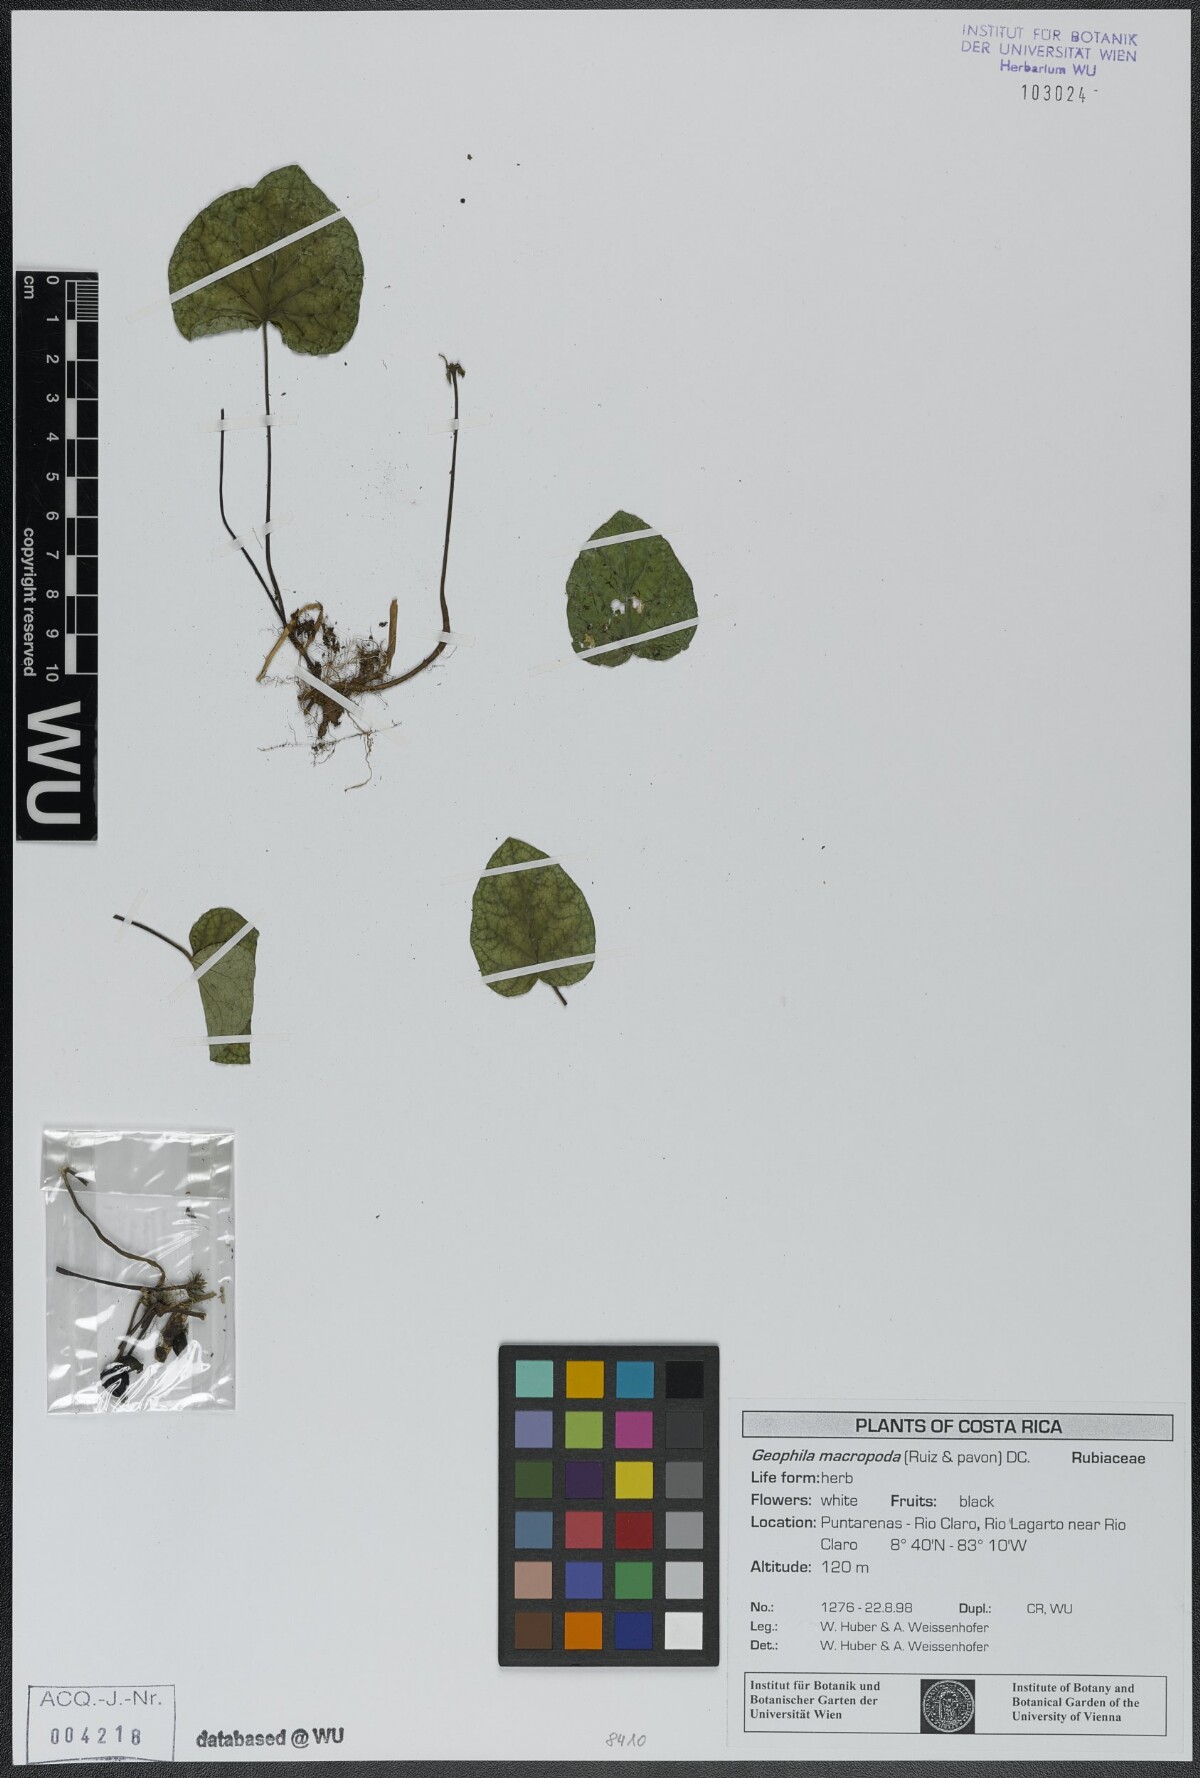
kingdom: Plantae
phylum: Tracheophyta
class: Magnoliopsida
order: Gentianales
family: Rubiaceae
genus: Geophila
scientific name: Geophila macropoda
